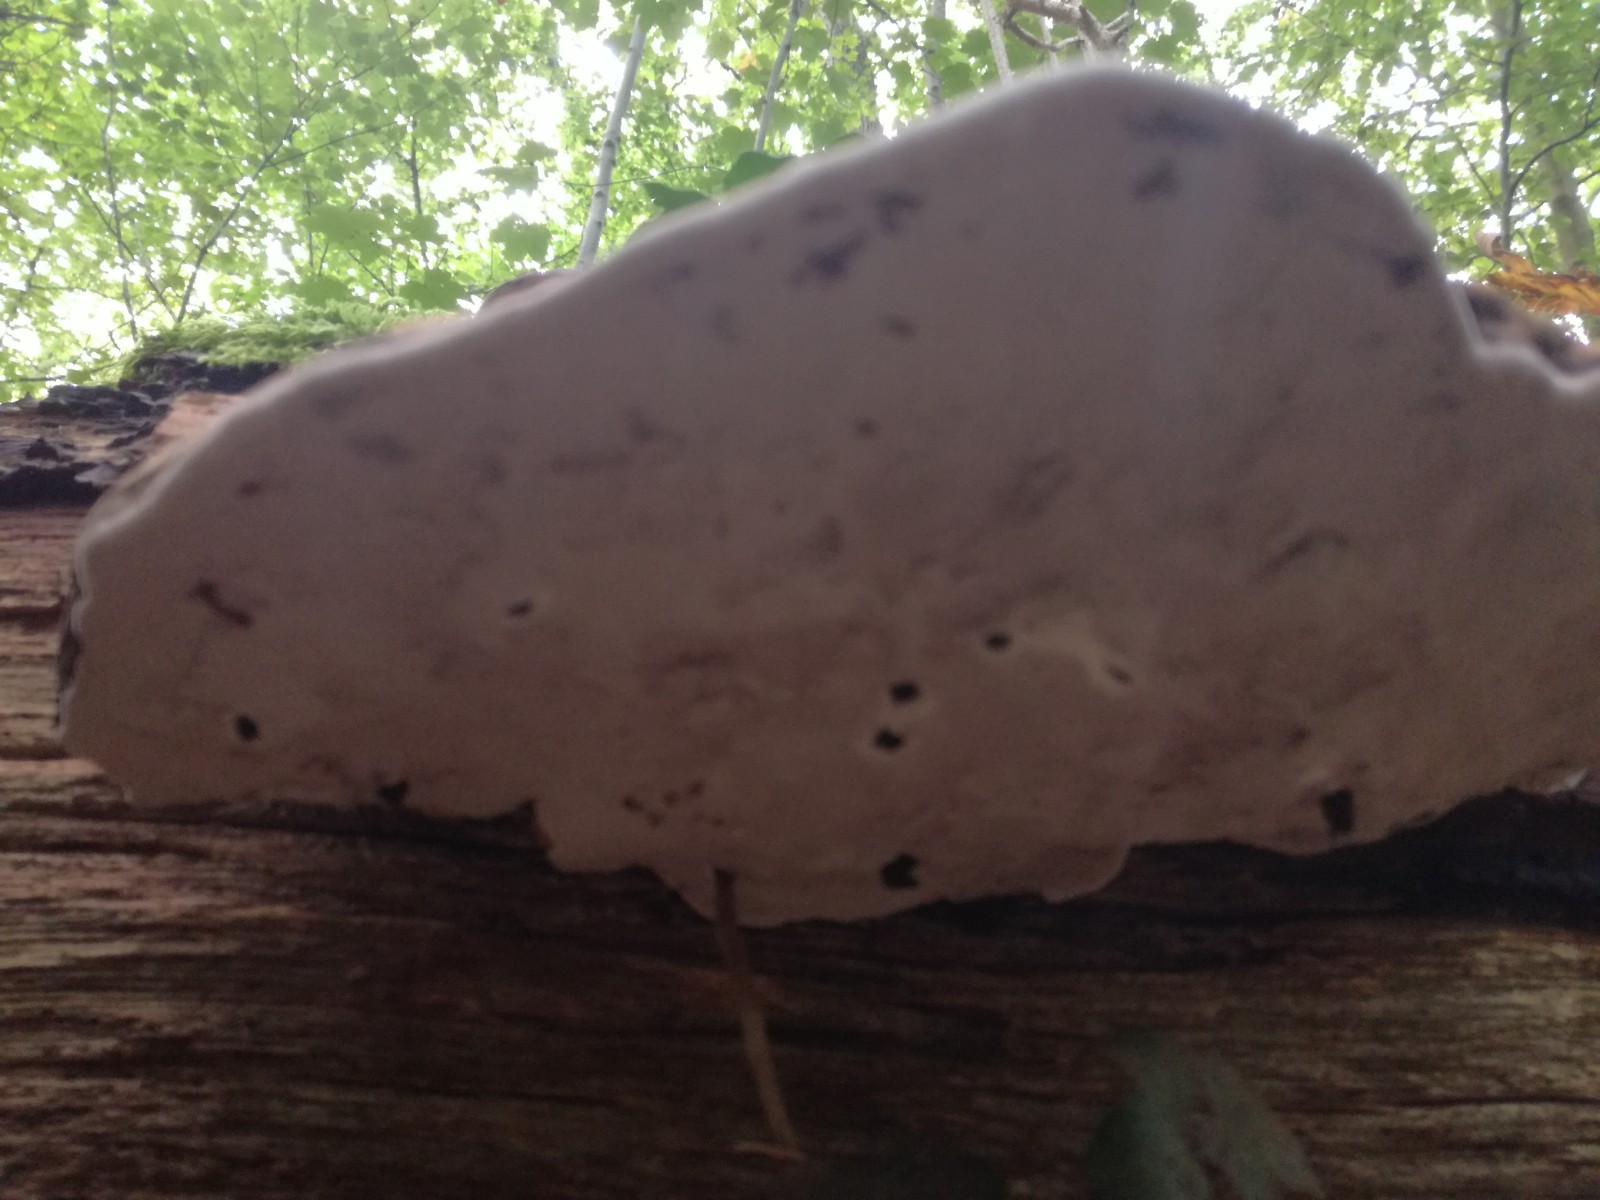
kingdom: Fungi
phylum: Basidiomycota
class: Agaricomycetes
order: Polyporales
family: Polyporaceae
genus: Ganoderma
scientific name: Ganoderma applanatum
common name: flad lakporesvamp
